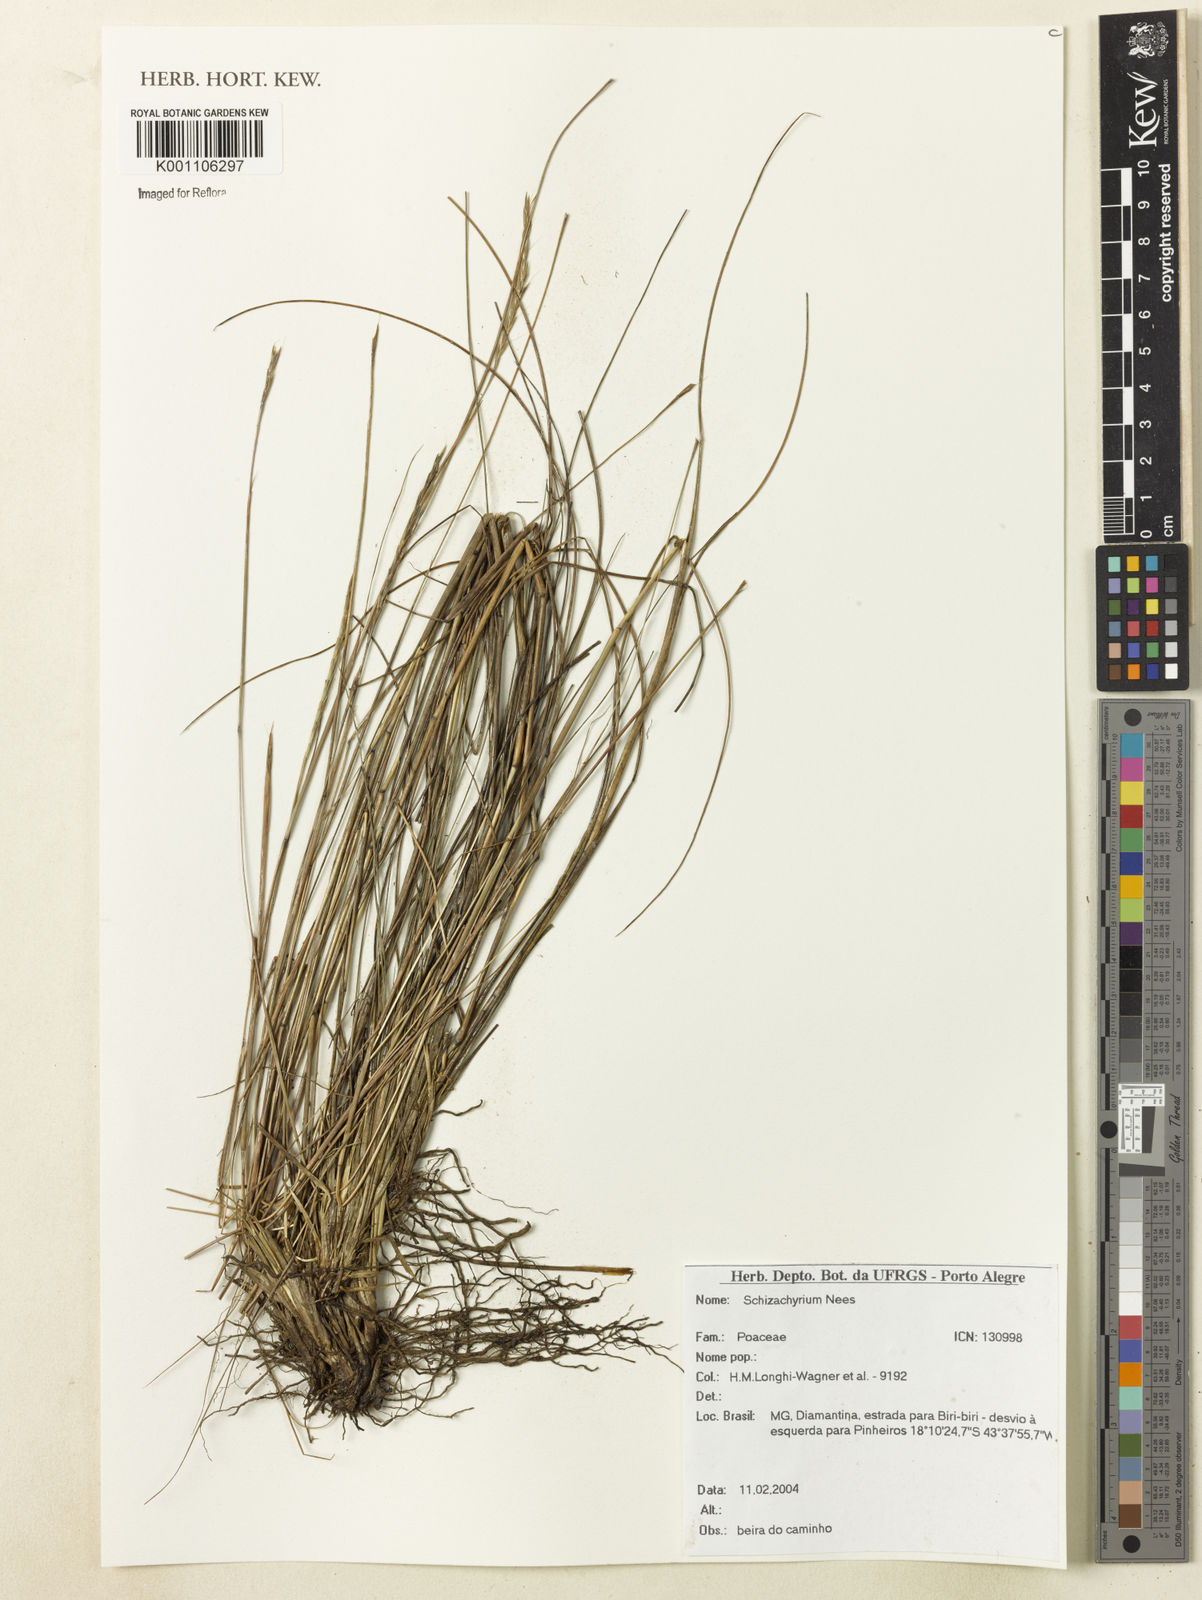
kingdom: Plantae
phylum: Tracheophyta
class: Liliopsida
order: Poales
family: Poaceae
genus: Schizachyrium
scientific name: Schizachyrium
